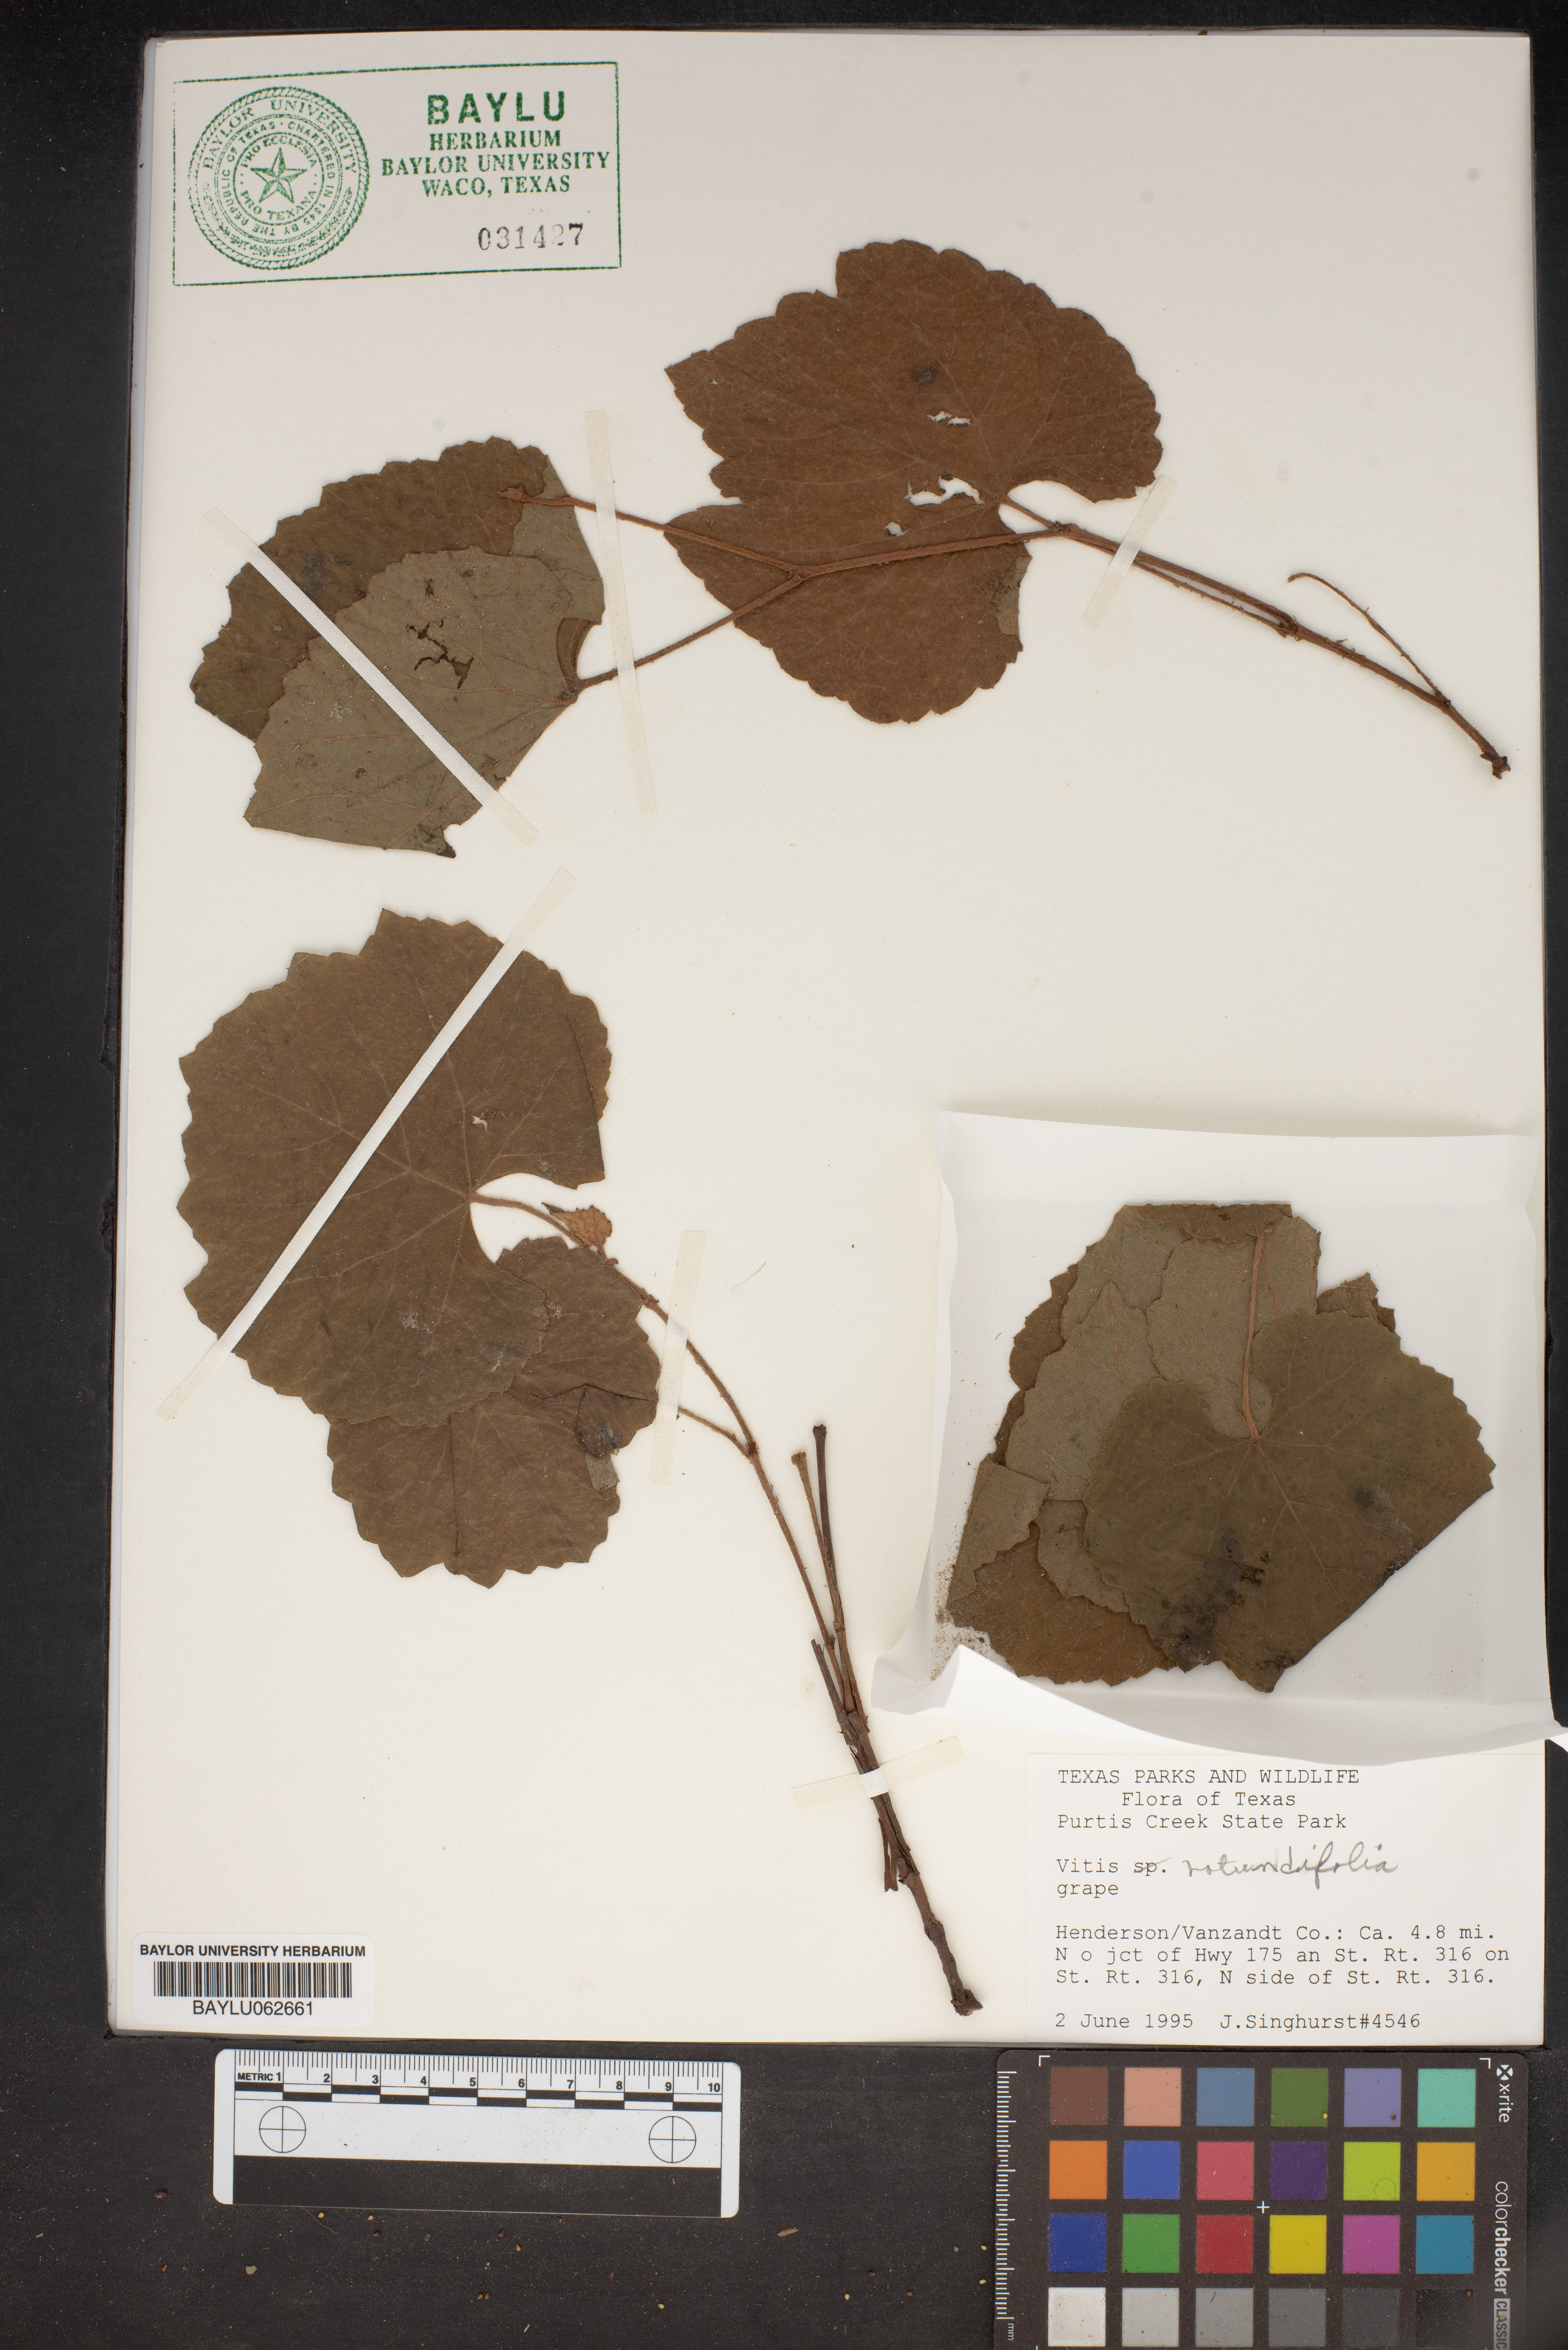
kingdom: Plantae
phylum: Tracheophyta
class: Magnoliopsida
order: Vitales
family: Vitaceae
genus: Vitis
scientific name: Vitis rotundifolia
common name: Muscadine grape
